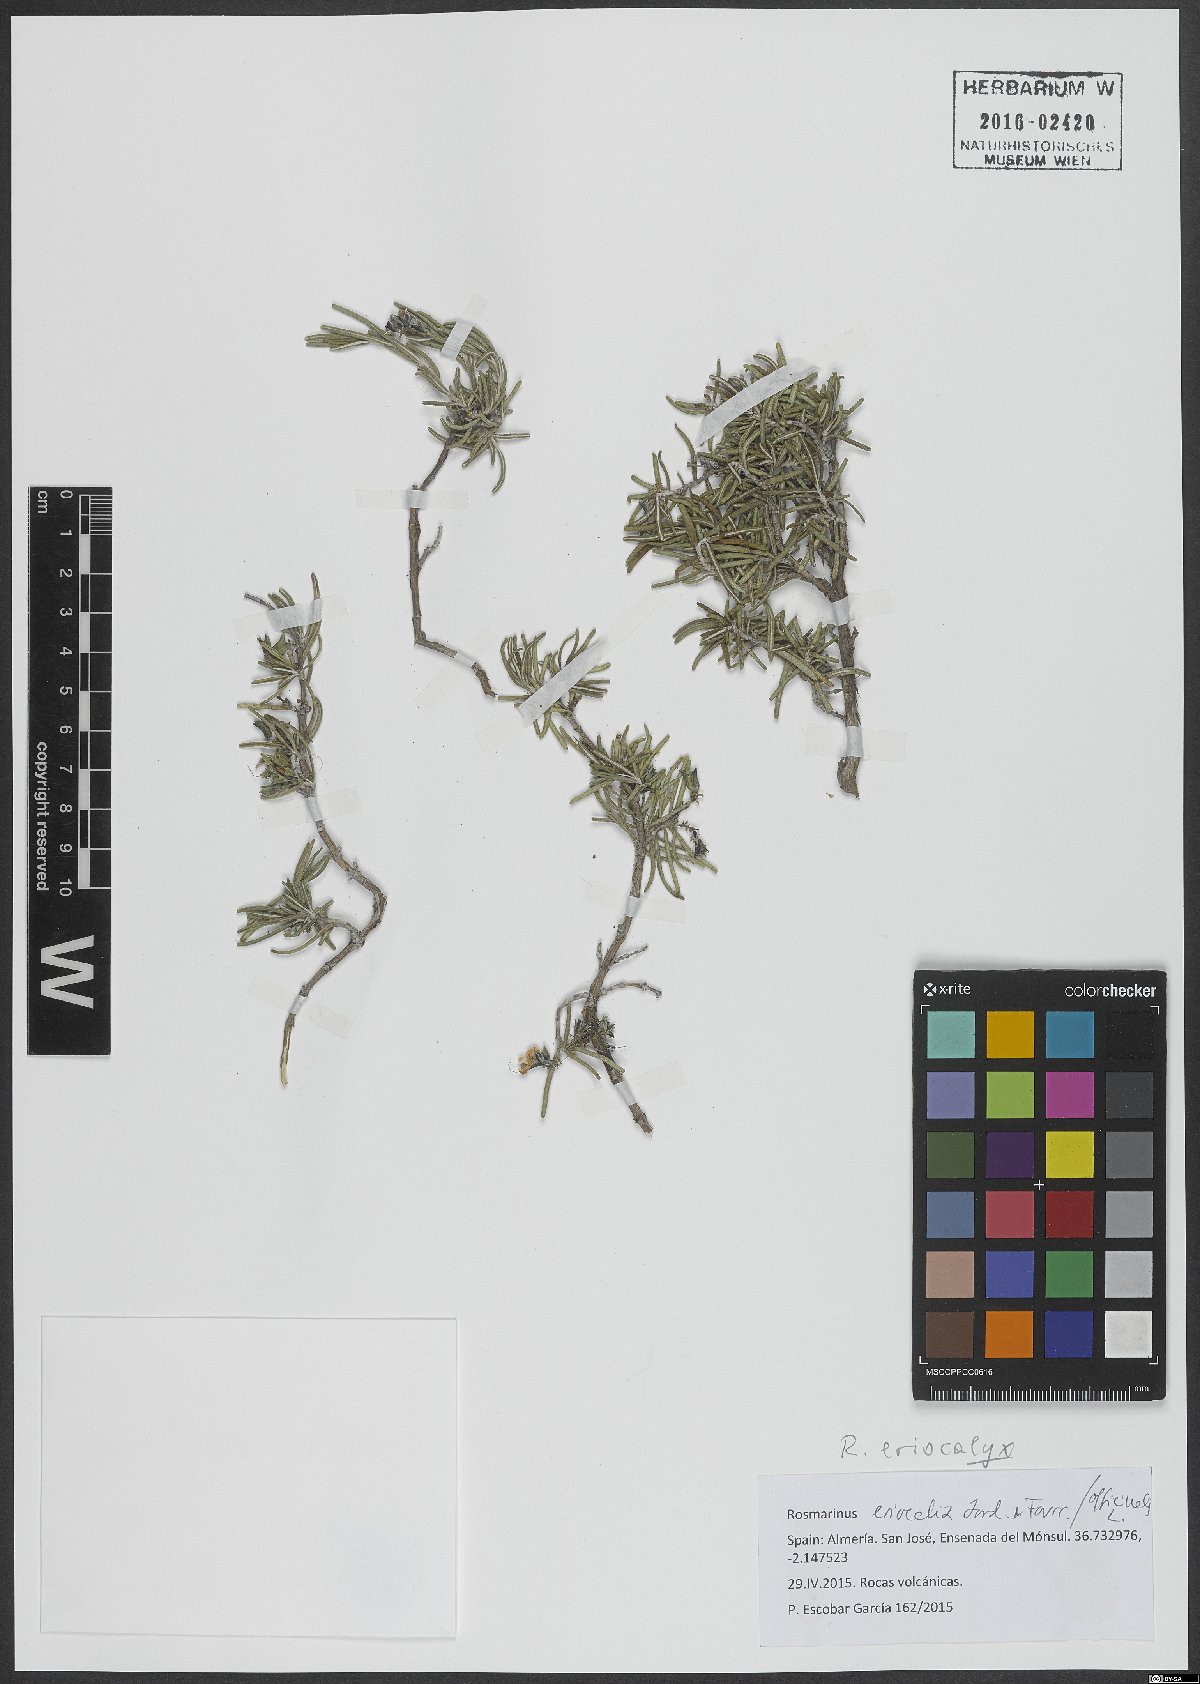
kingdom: Plantae
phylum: Tracheophyta
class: Magnoliopsida
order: Lamiales
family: Lamiaceae
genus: Salvia
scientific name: Salvia jordanii
